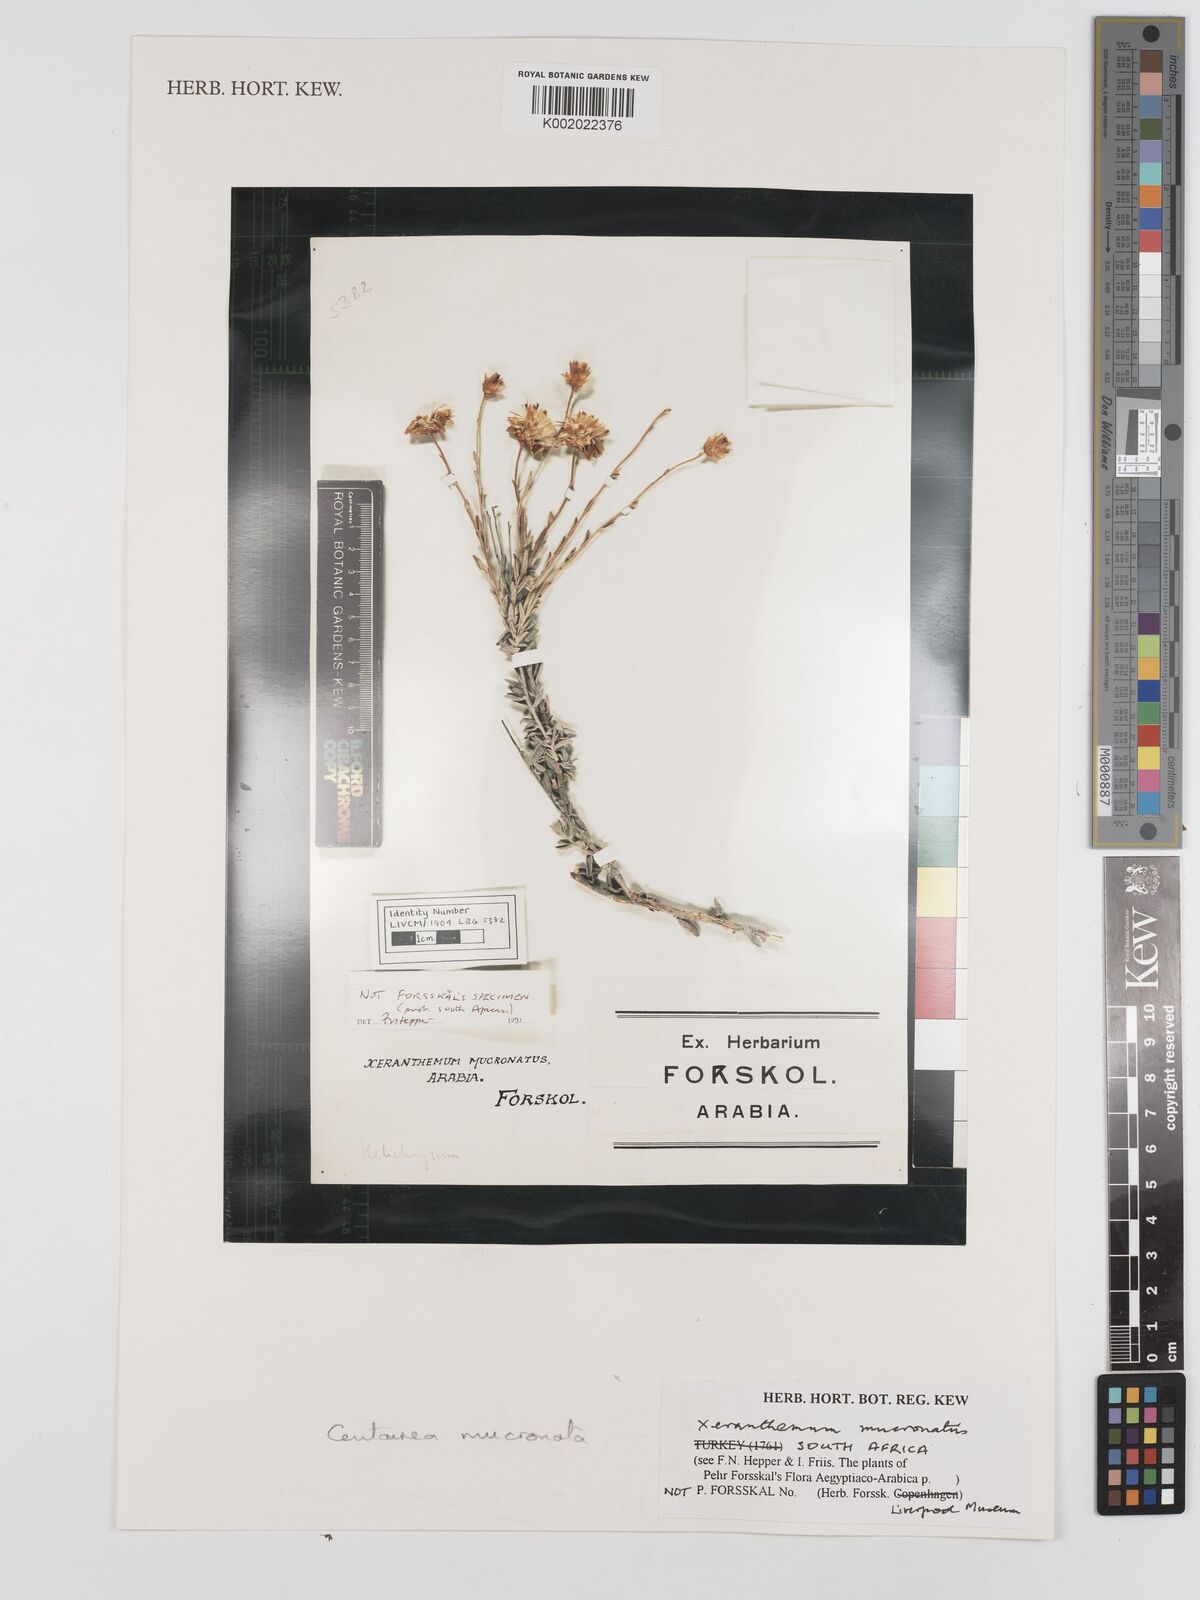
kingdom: Plantae
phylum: Tracheophyta
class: Magnoliopsida
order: Asterales
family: Asteraceae
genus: Crocodilium
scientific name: Crocodilium pumilio
